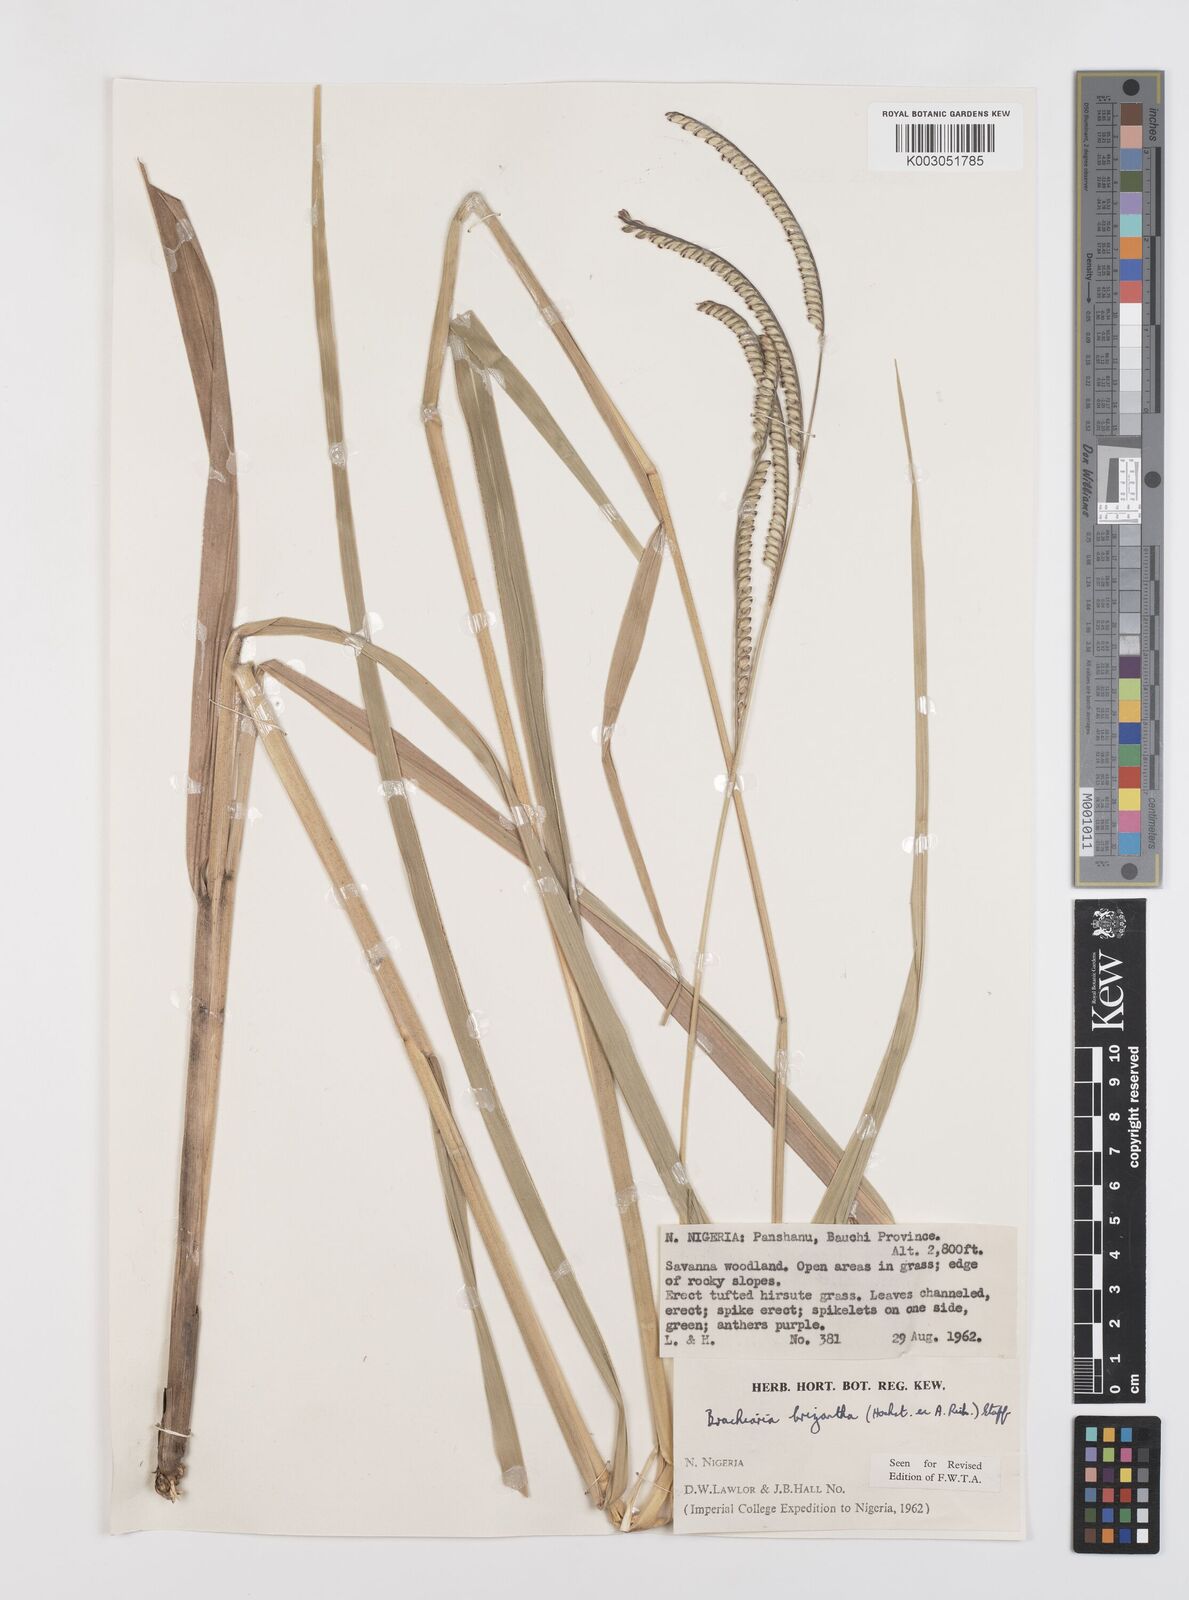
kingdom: Plantae
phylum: Tracheophyta
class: Liliopsida
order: Poales
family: Poaceae
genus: Urochloa
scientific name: Urochloa brizantha
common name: Palisade signalgrass
